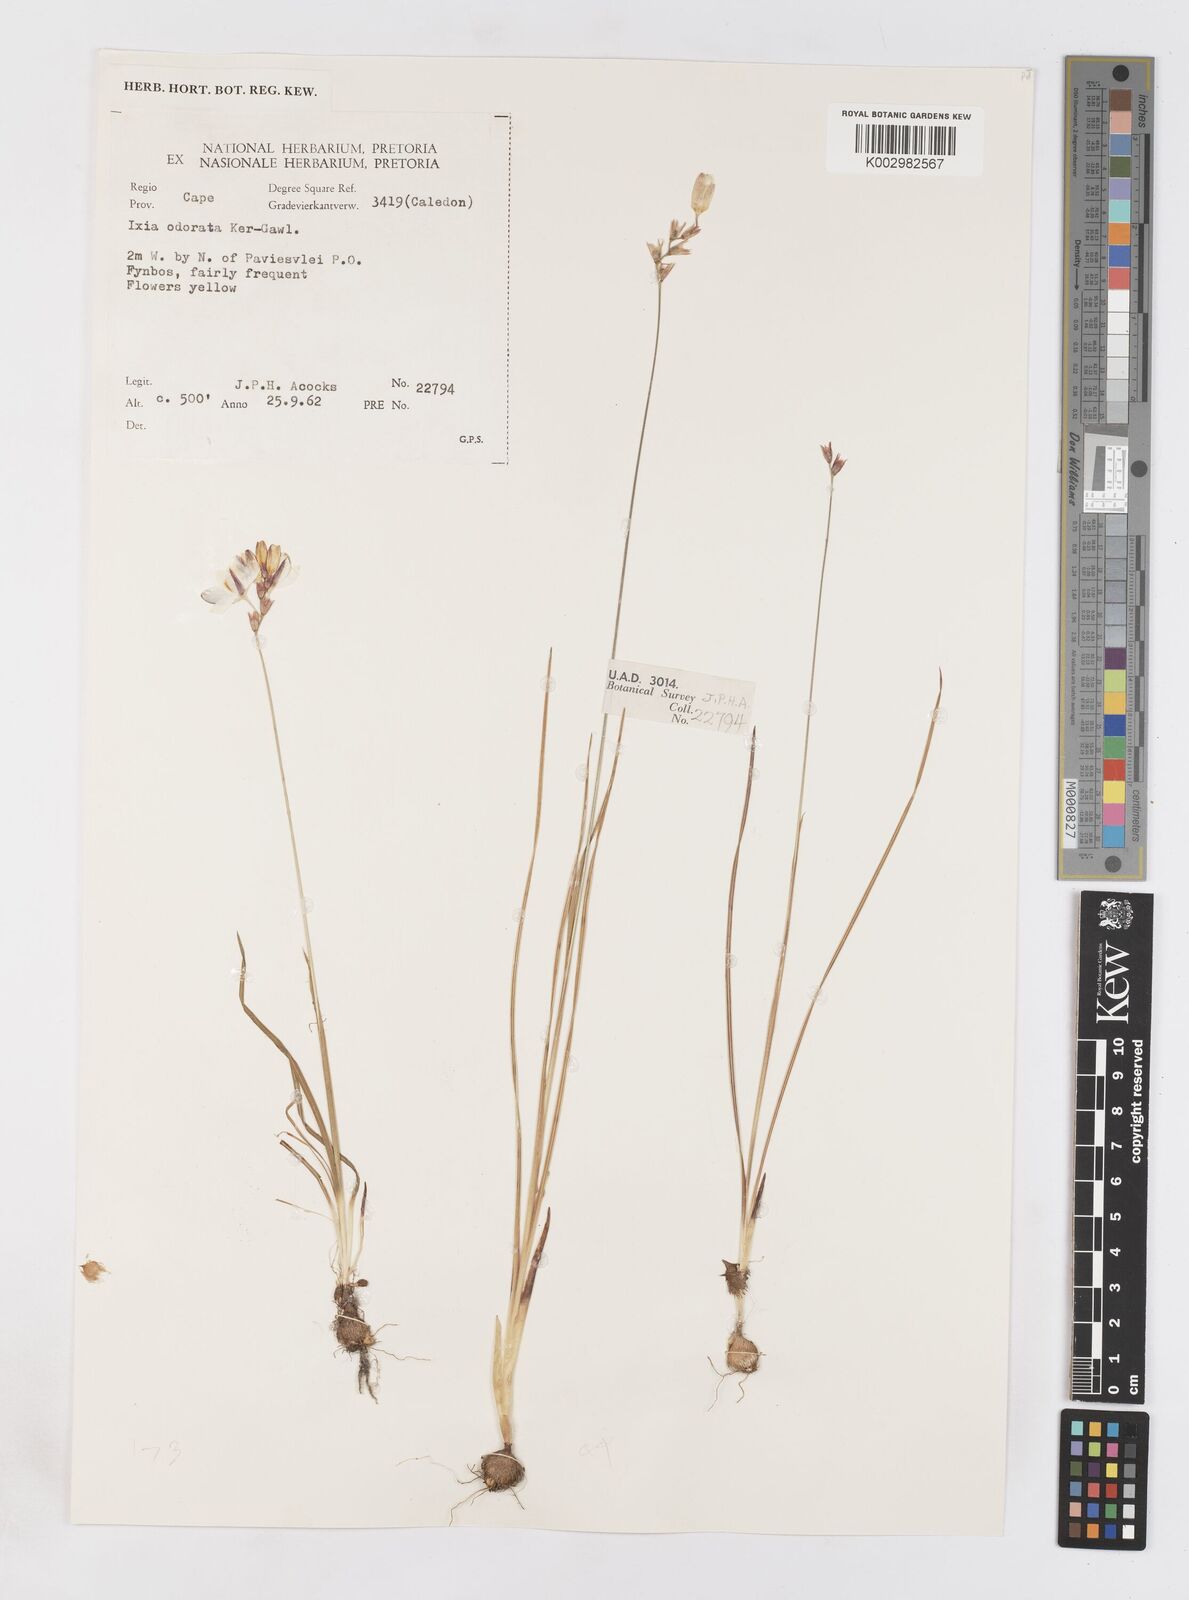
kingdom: Plantae
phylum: Tracheophyta
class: Liliopsida
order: Asparagales
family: Iridaceae
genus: Ixia
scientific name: Ixia odorata
